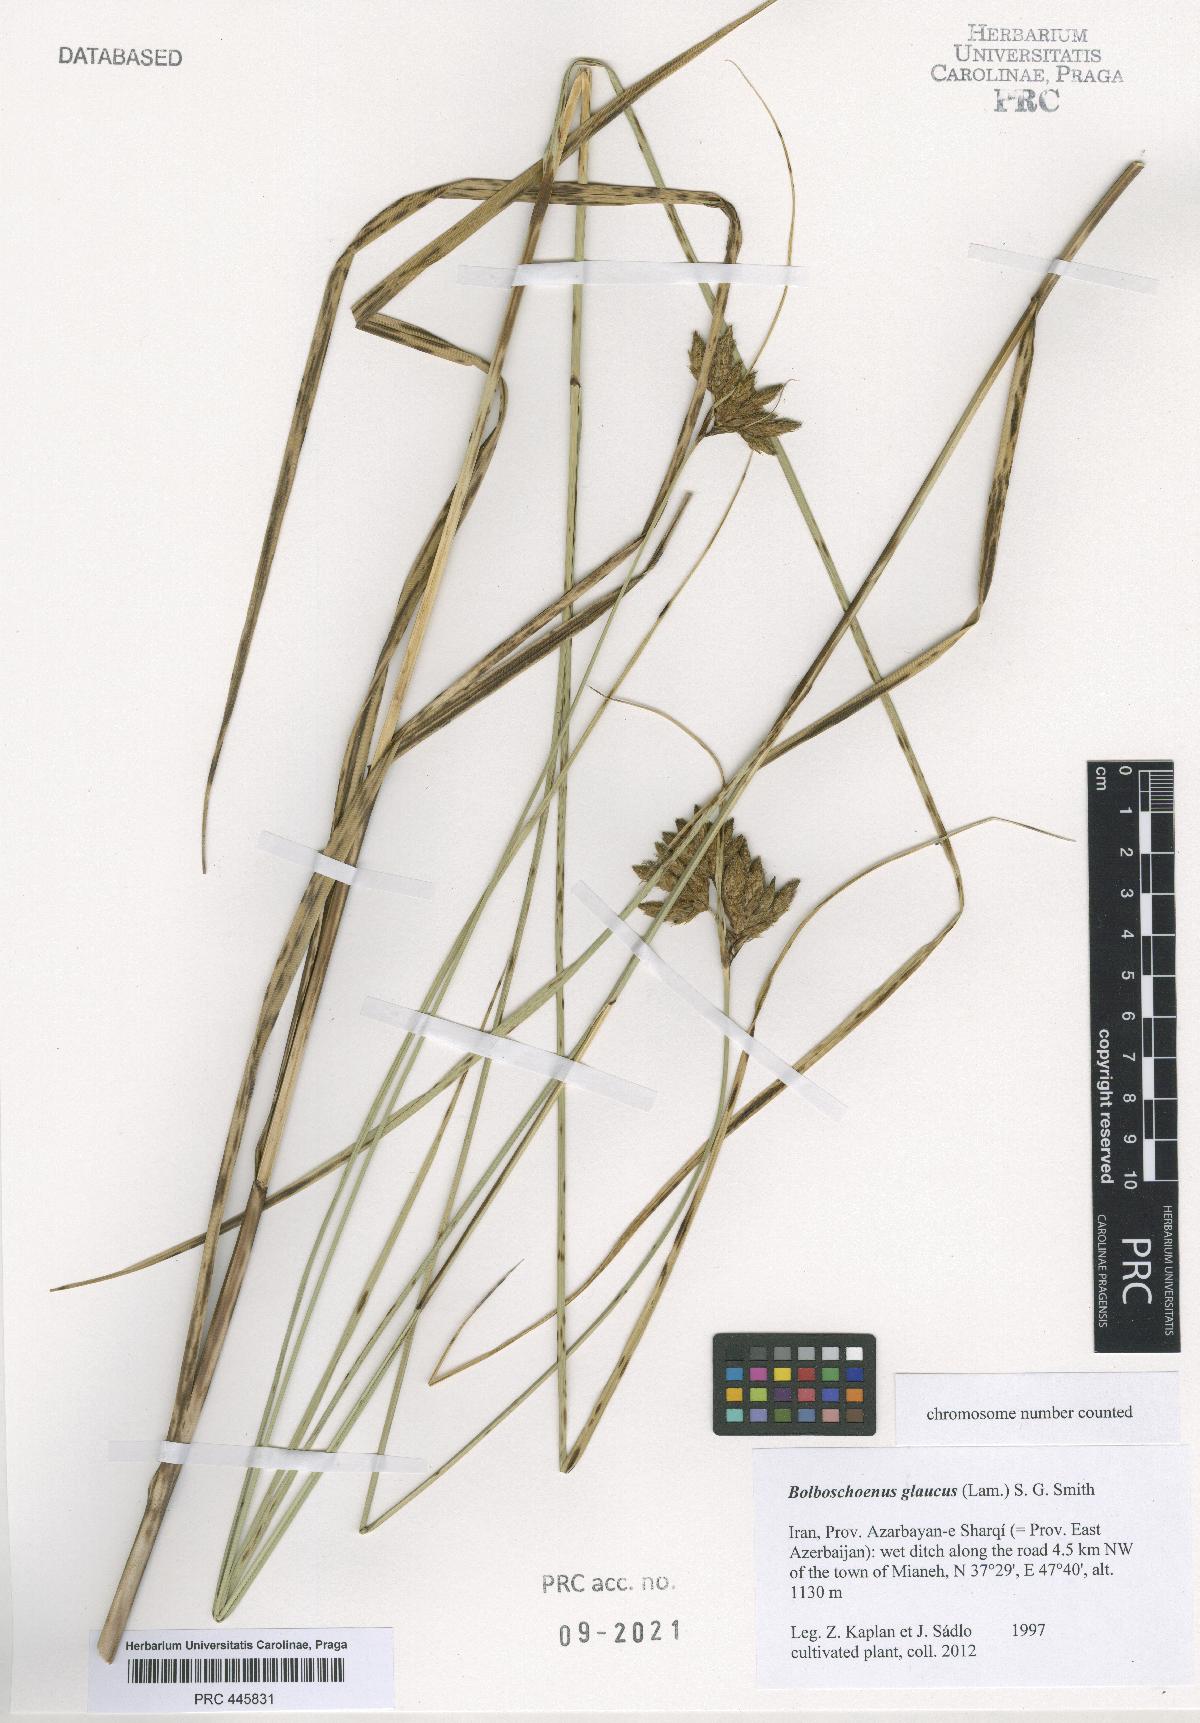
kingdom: Plantae
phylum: Tracheophyta
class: Liliopsida
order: Poales
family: Cyperaceae
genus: Bolboschoenus
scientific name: Bolboschoenus glaucus
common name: Tuberous bulrush
